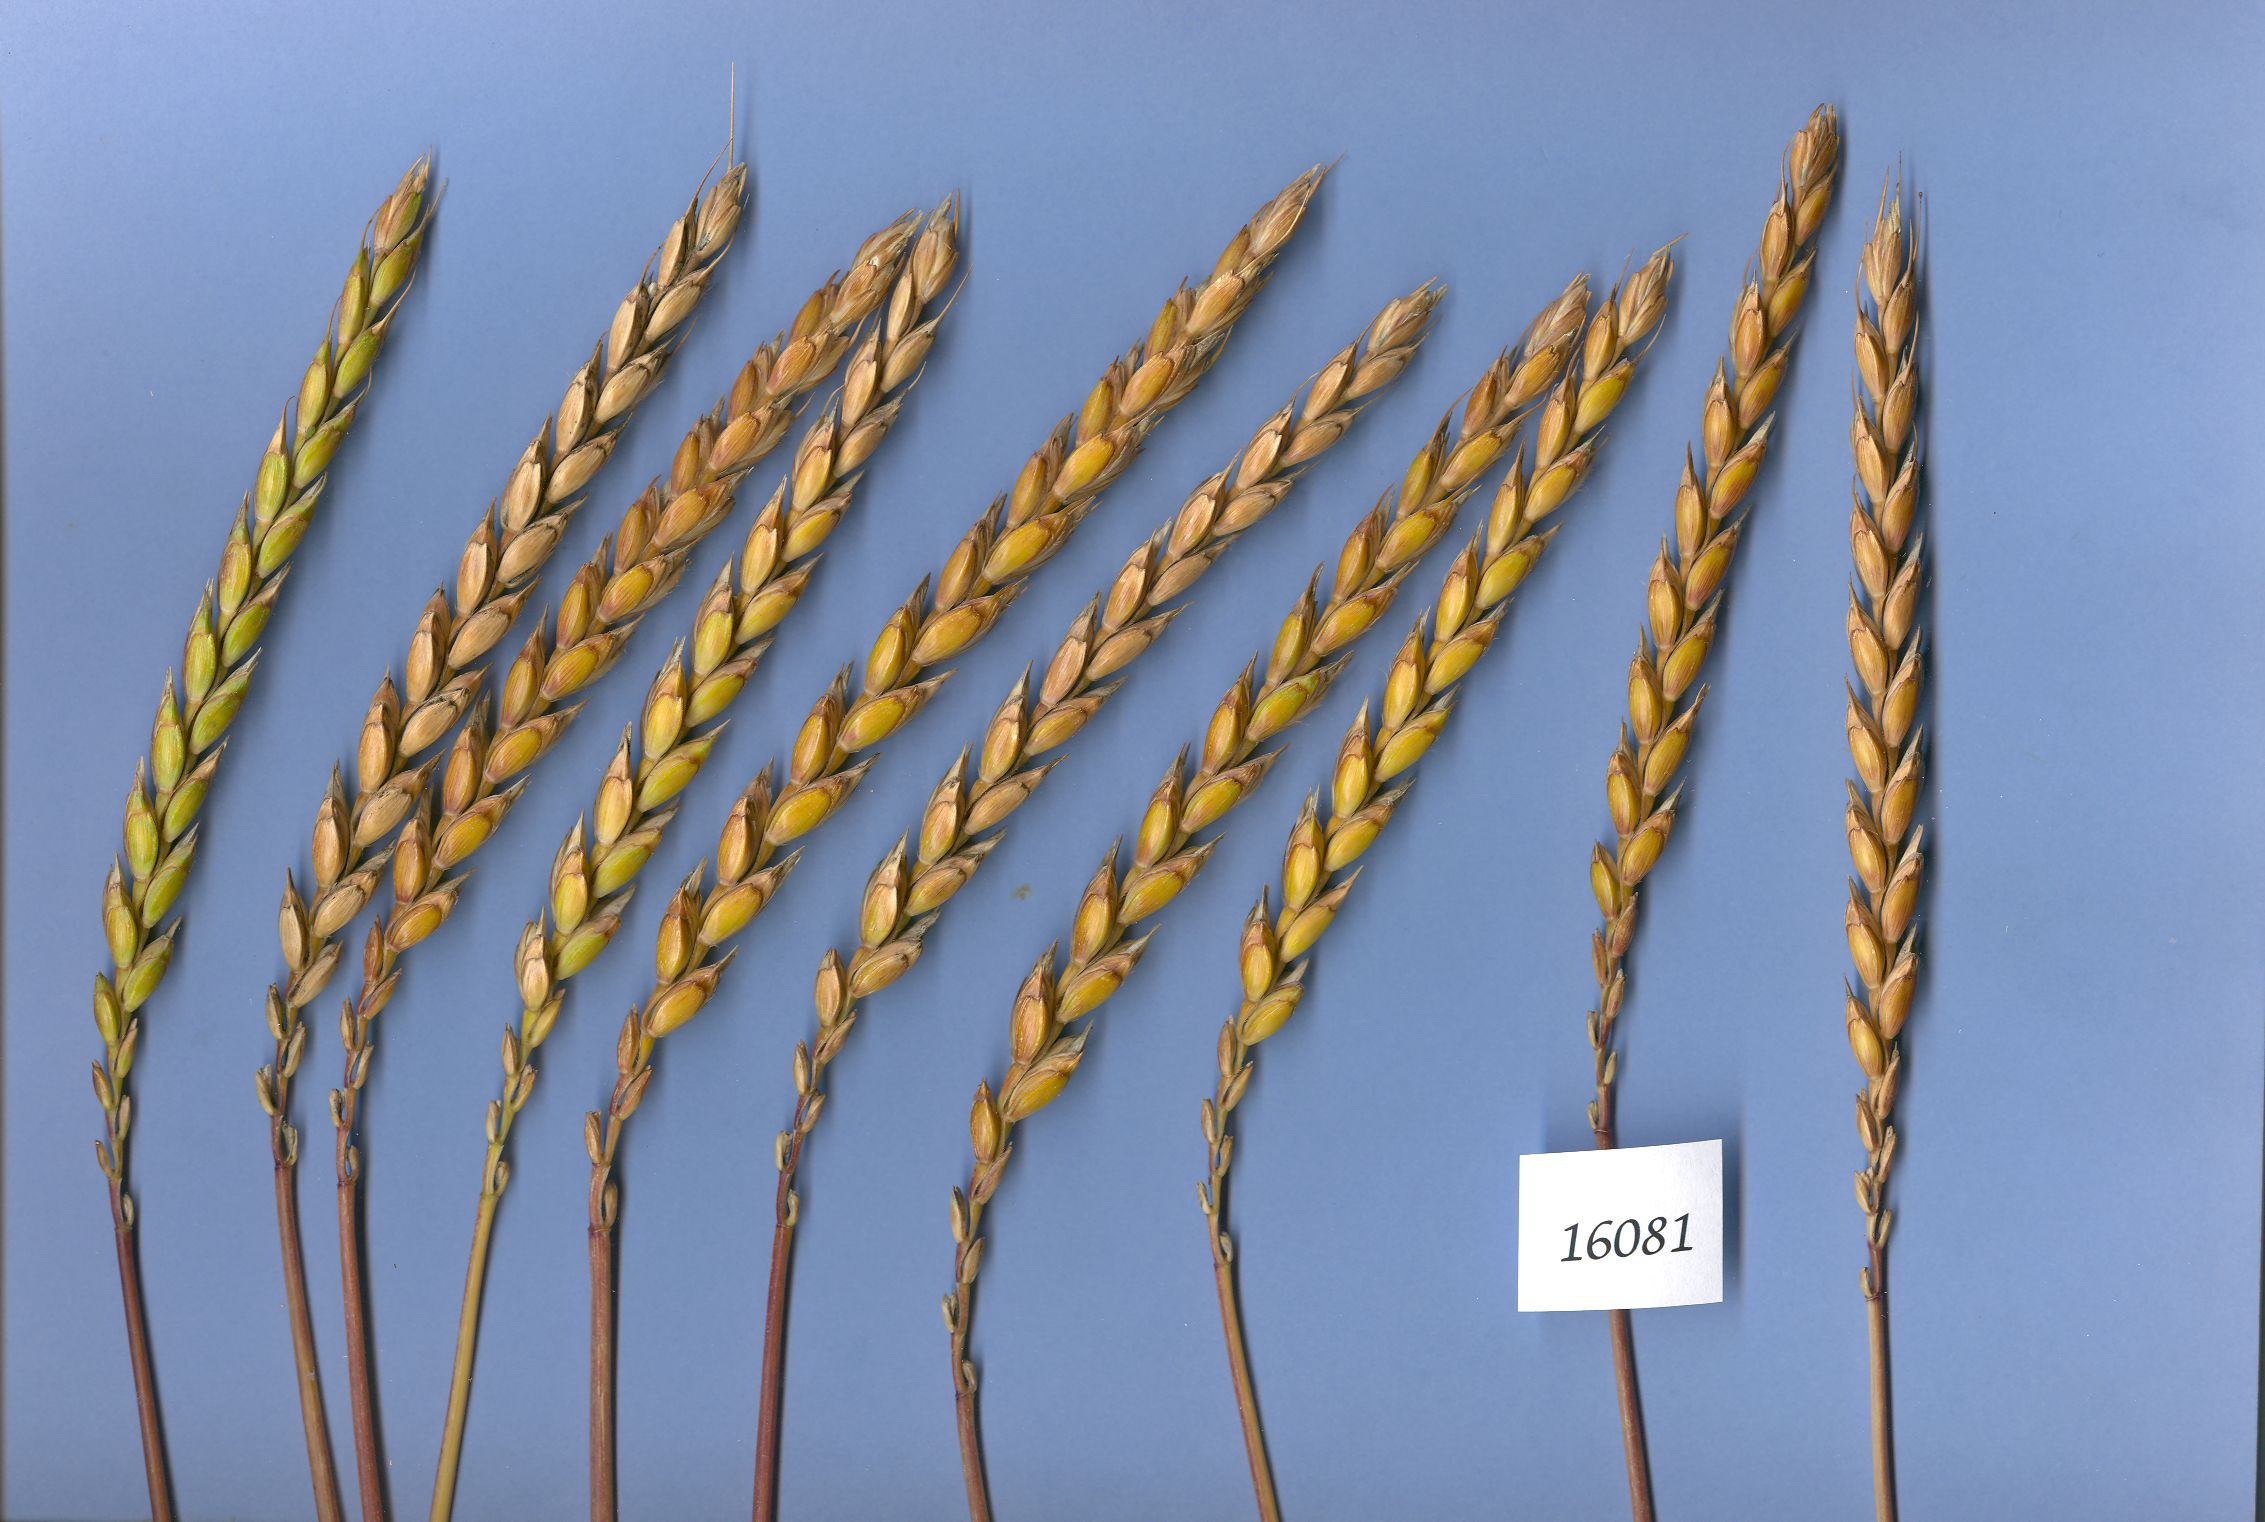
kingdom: Plantae
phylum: Tracheophyta
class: Liliopsida
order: Poales
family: Poaceae
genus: Triticum
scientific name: Triticum aestivum
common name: Common wheat
